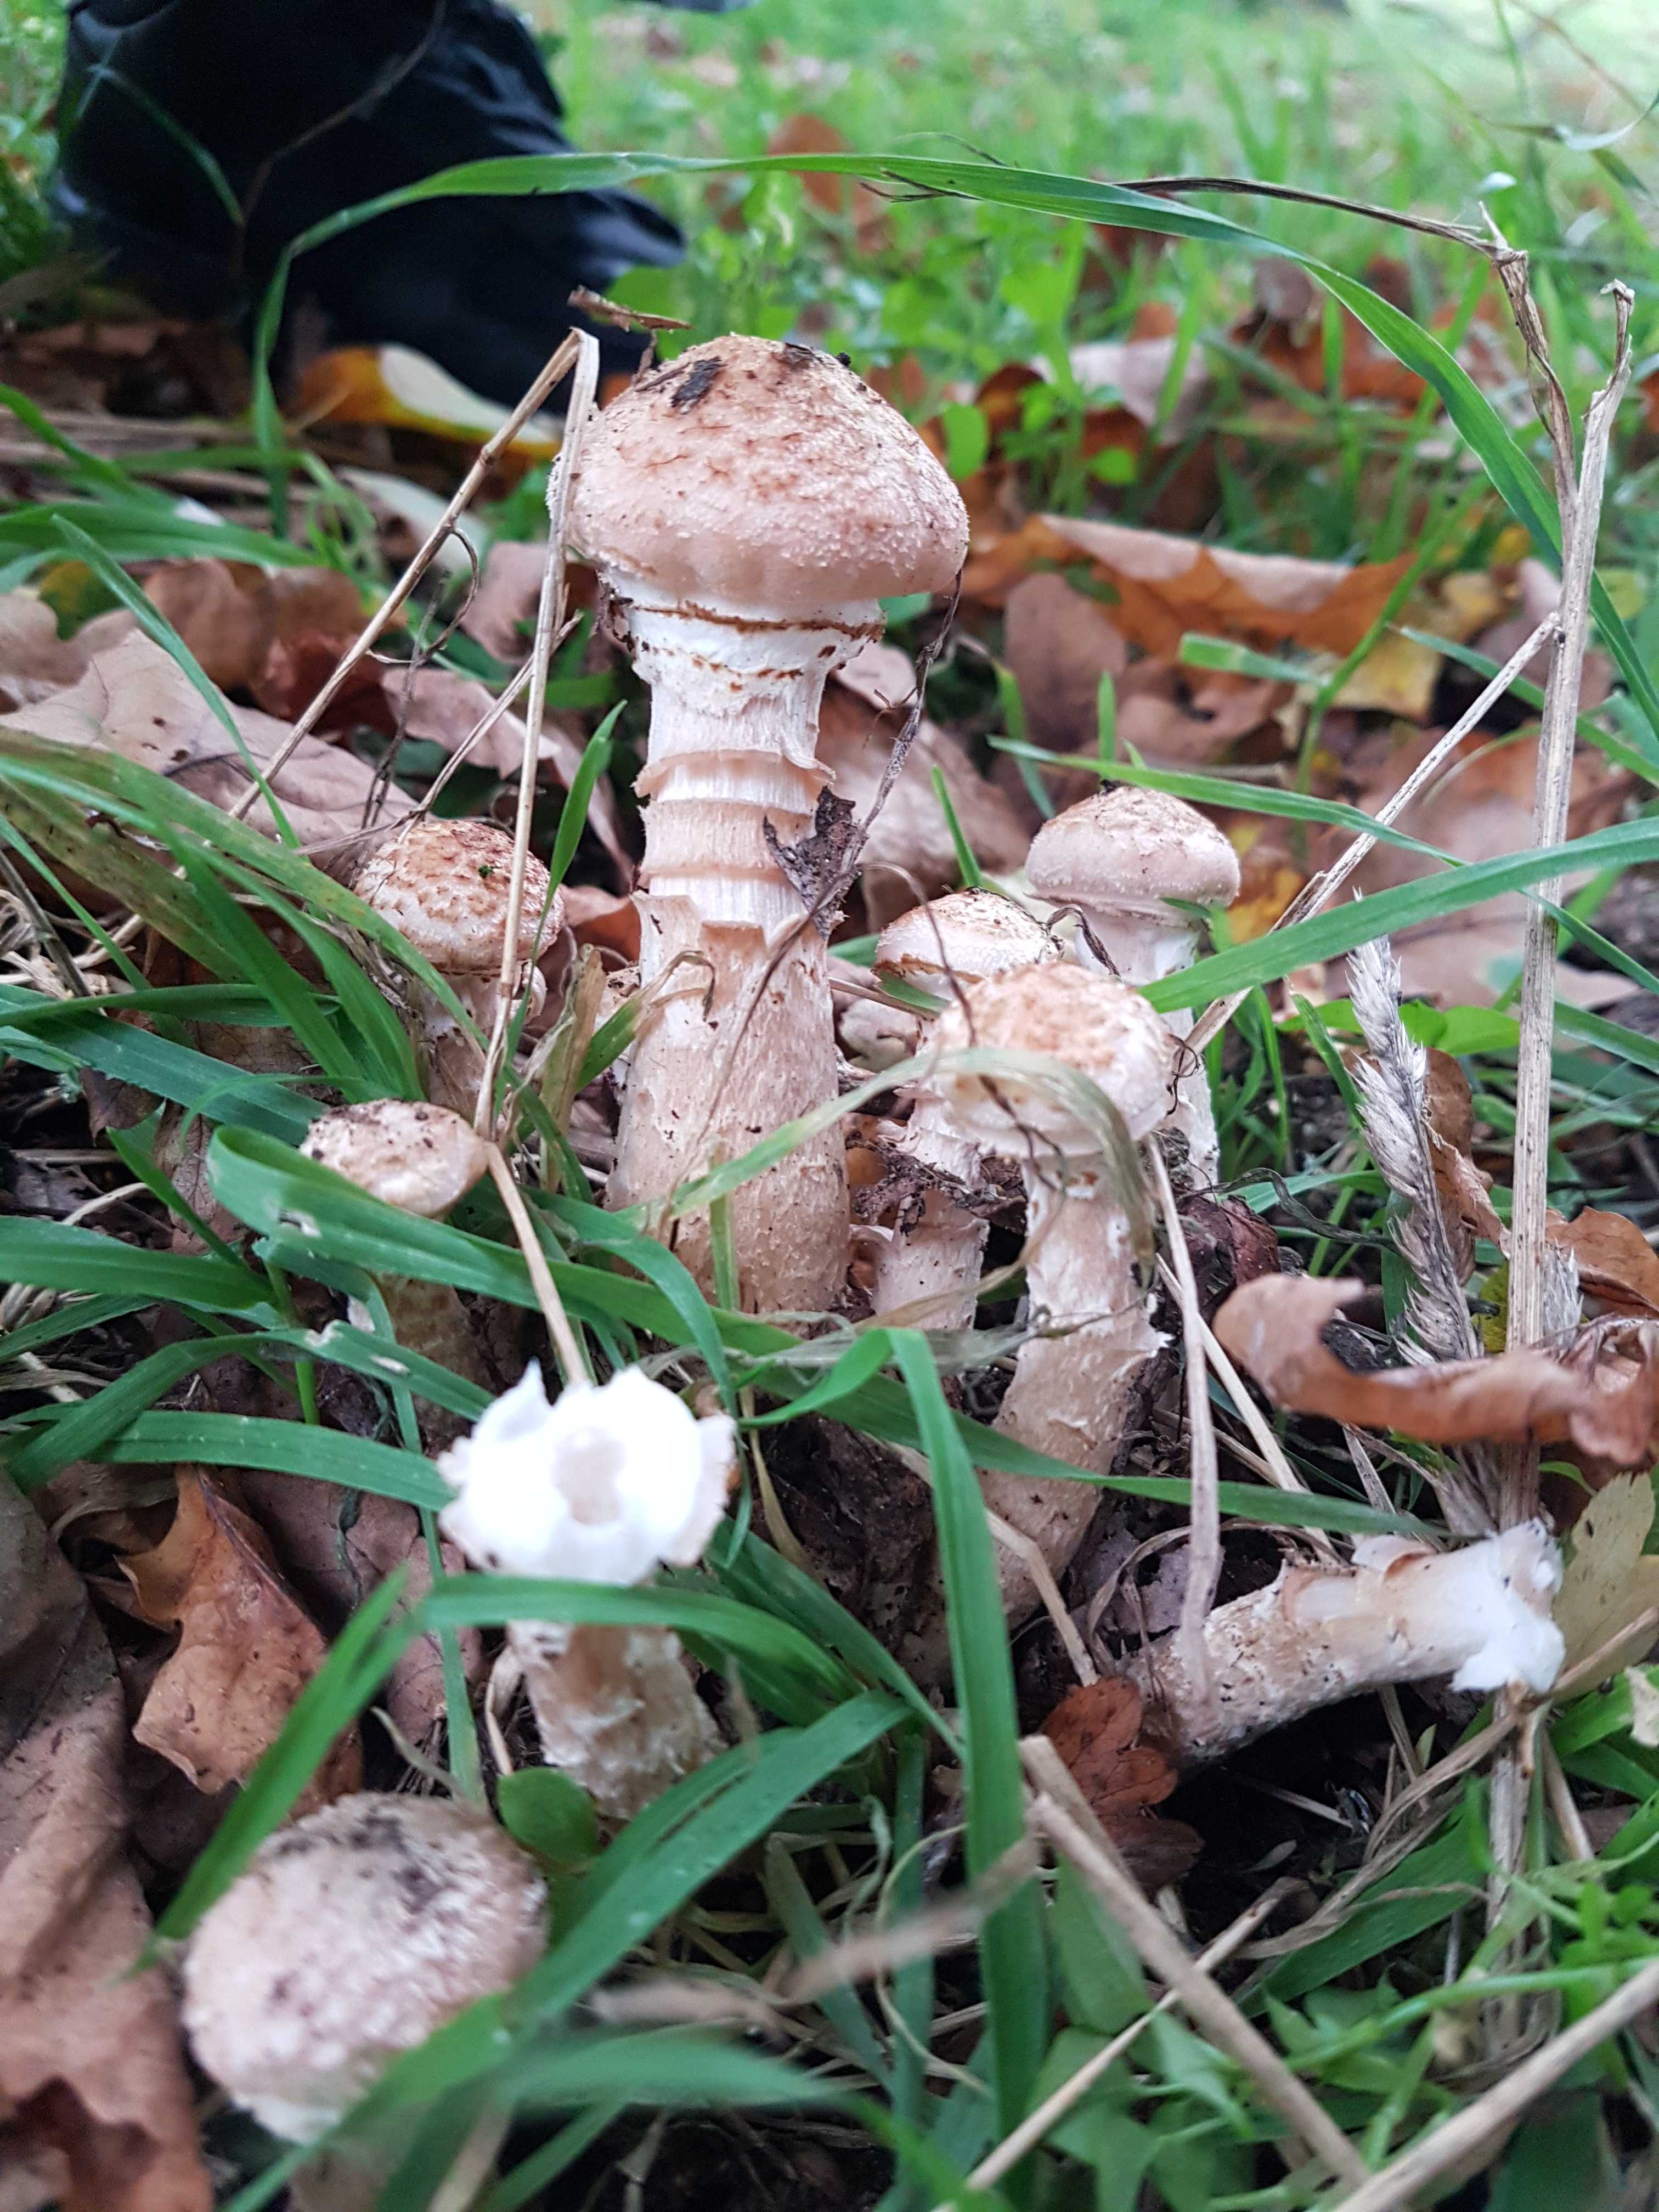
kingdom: Fungi
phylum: Basidiomycota
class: Agaricomycetes
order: Agaricales
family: Physalacriaceae
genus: Armillaria
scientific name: Armillaria lutea
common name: køllestokket honningsvamp
